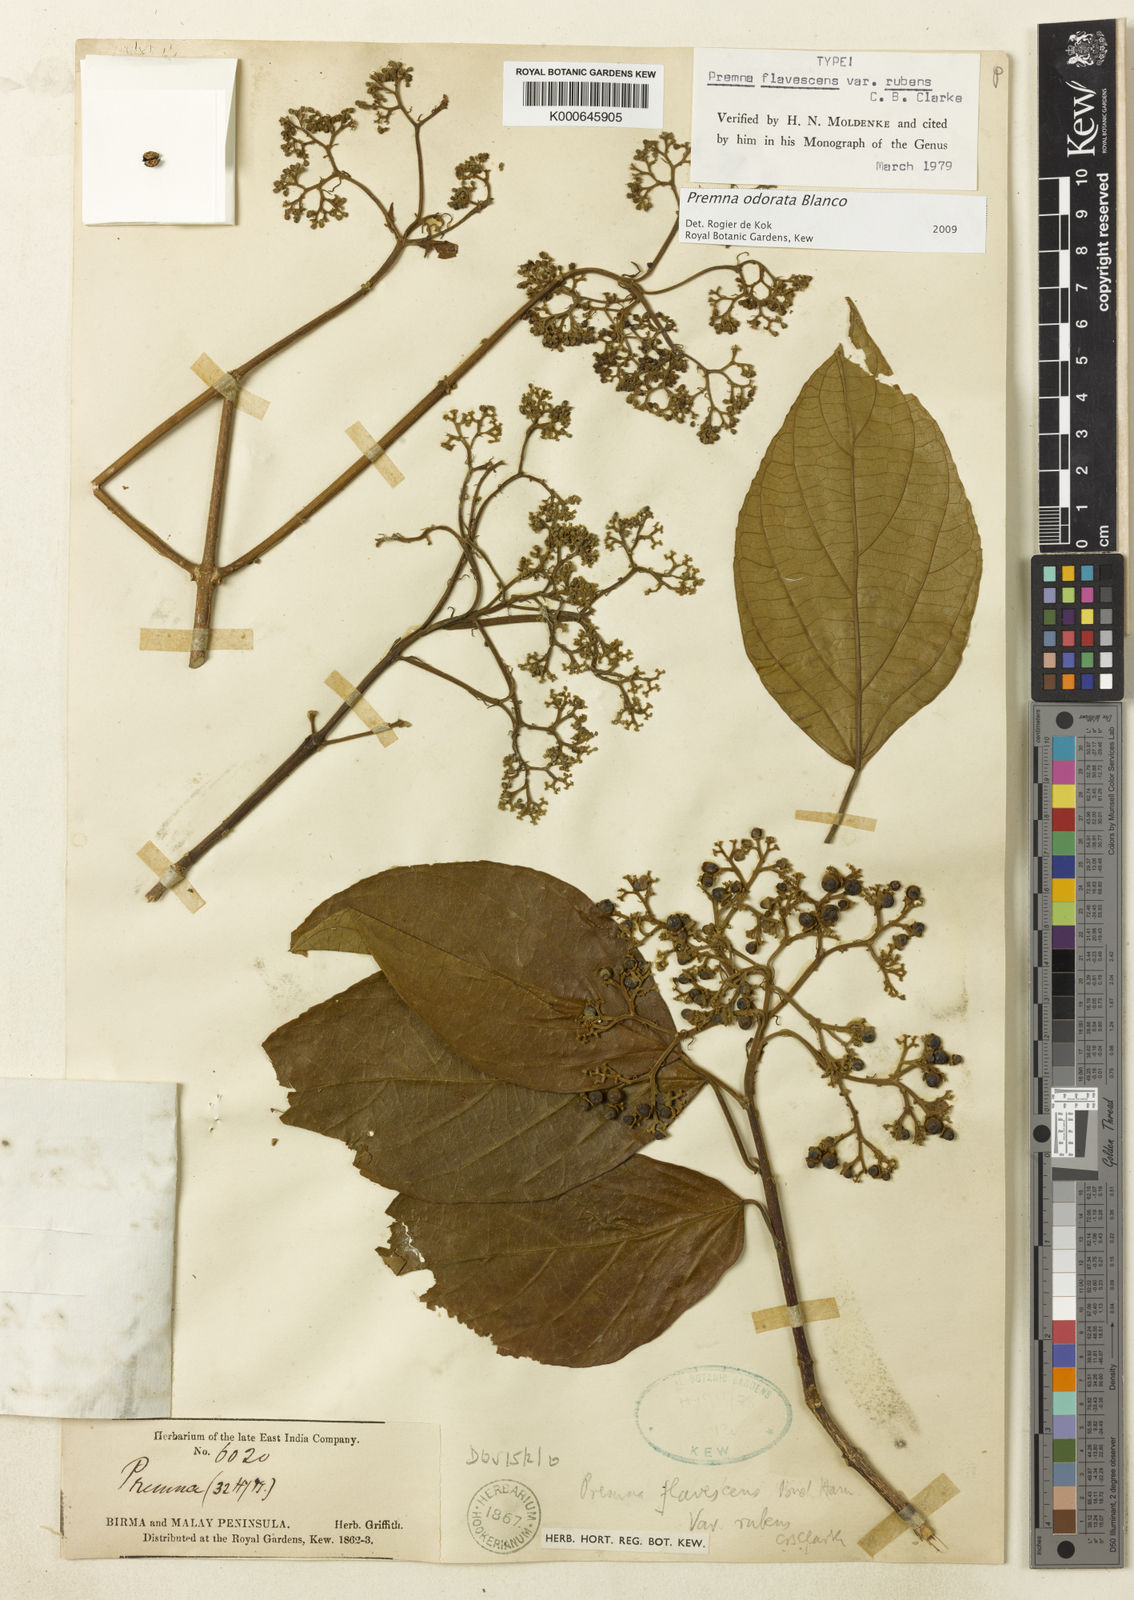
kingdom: Plantae
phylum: Tracheophyta
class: Magnoliopsida
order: Lamiales
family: Lamiaceae
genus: Premna
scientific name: Premna odorata
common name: Fragrant premna
